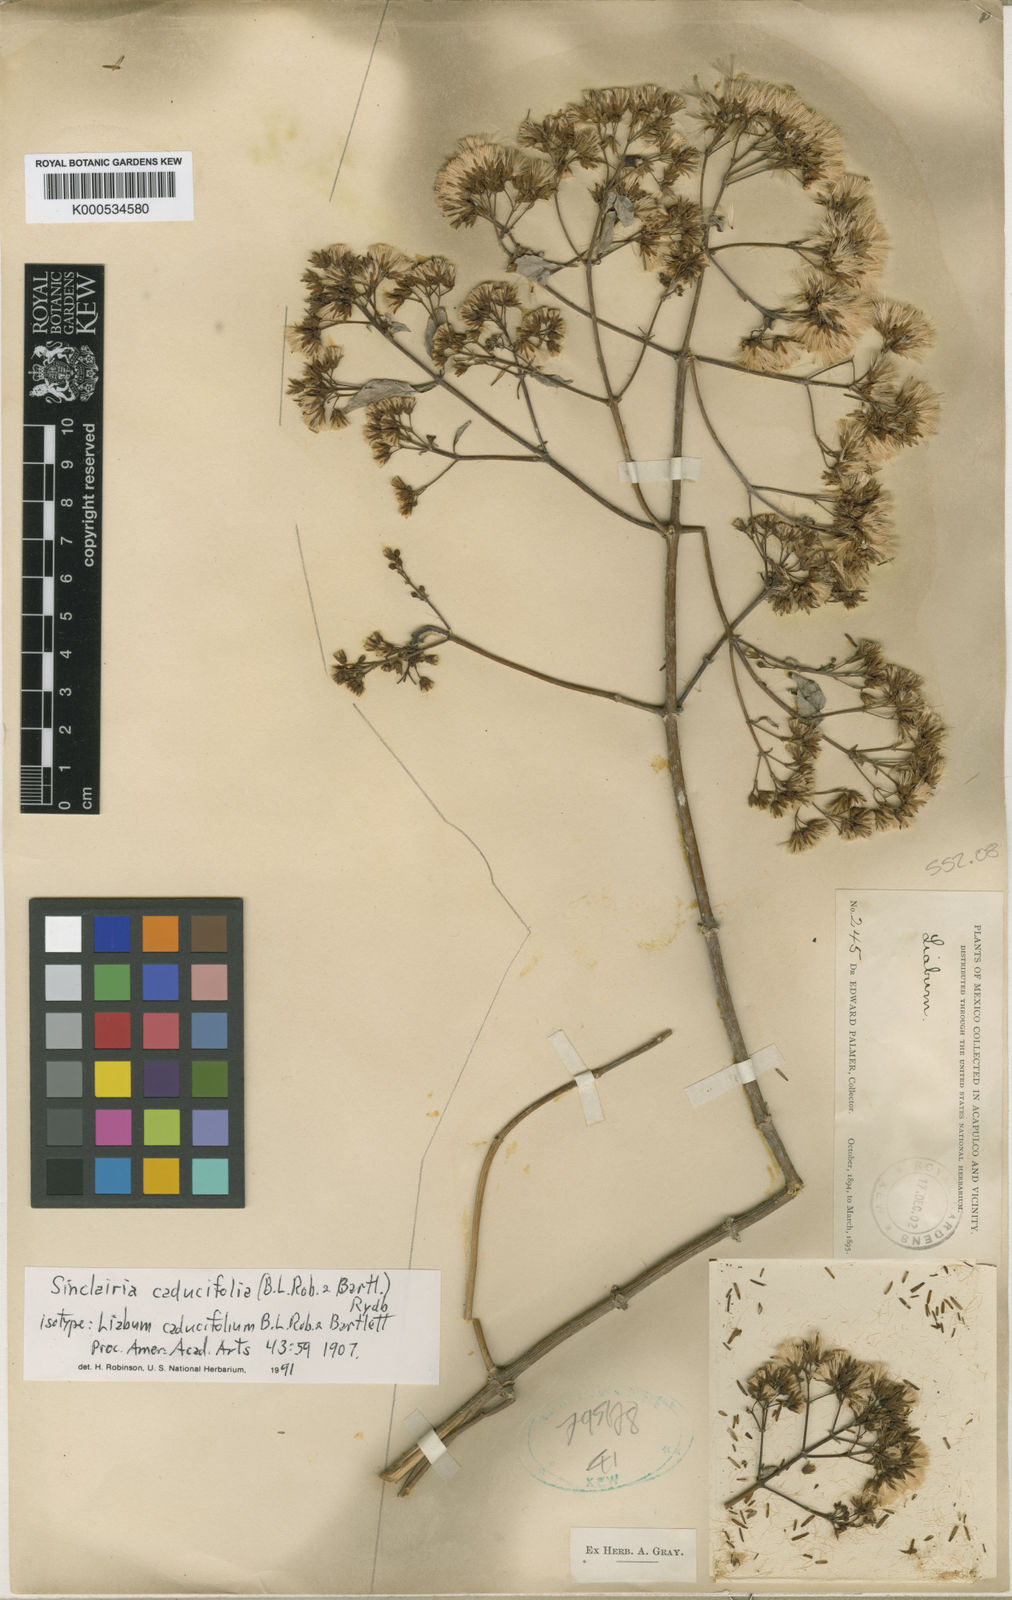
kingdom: Plantae
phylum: Tracheophyta
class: Magnoliopsida
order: Asterales
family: Asteraceae
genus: Sinclairia
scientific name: Sinclairia caducifolia
